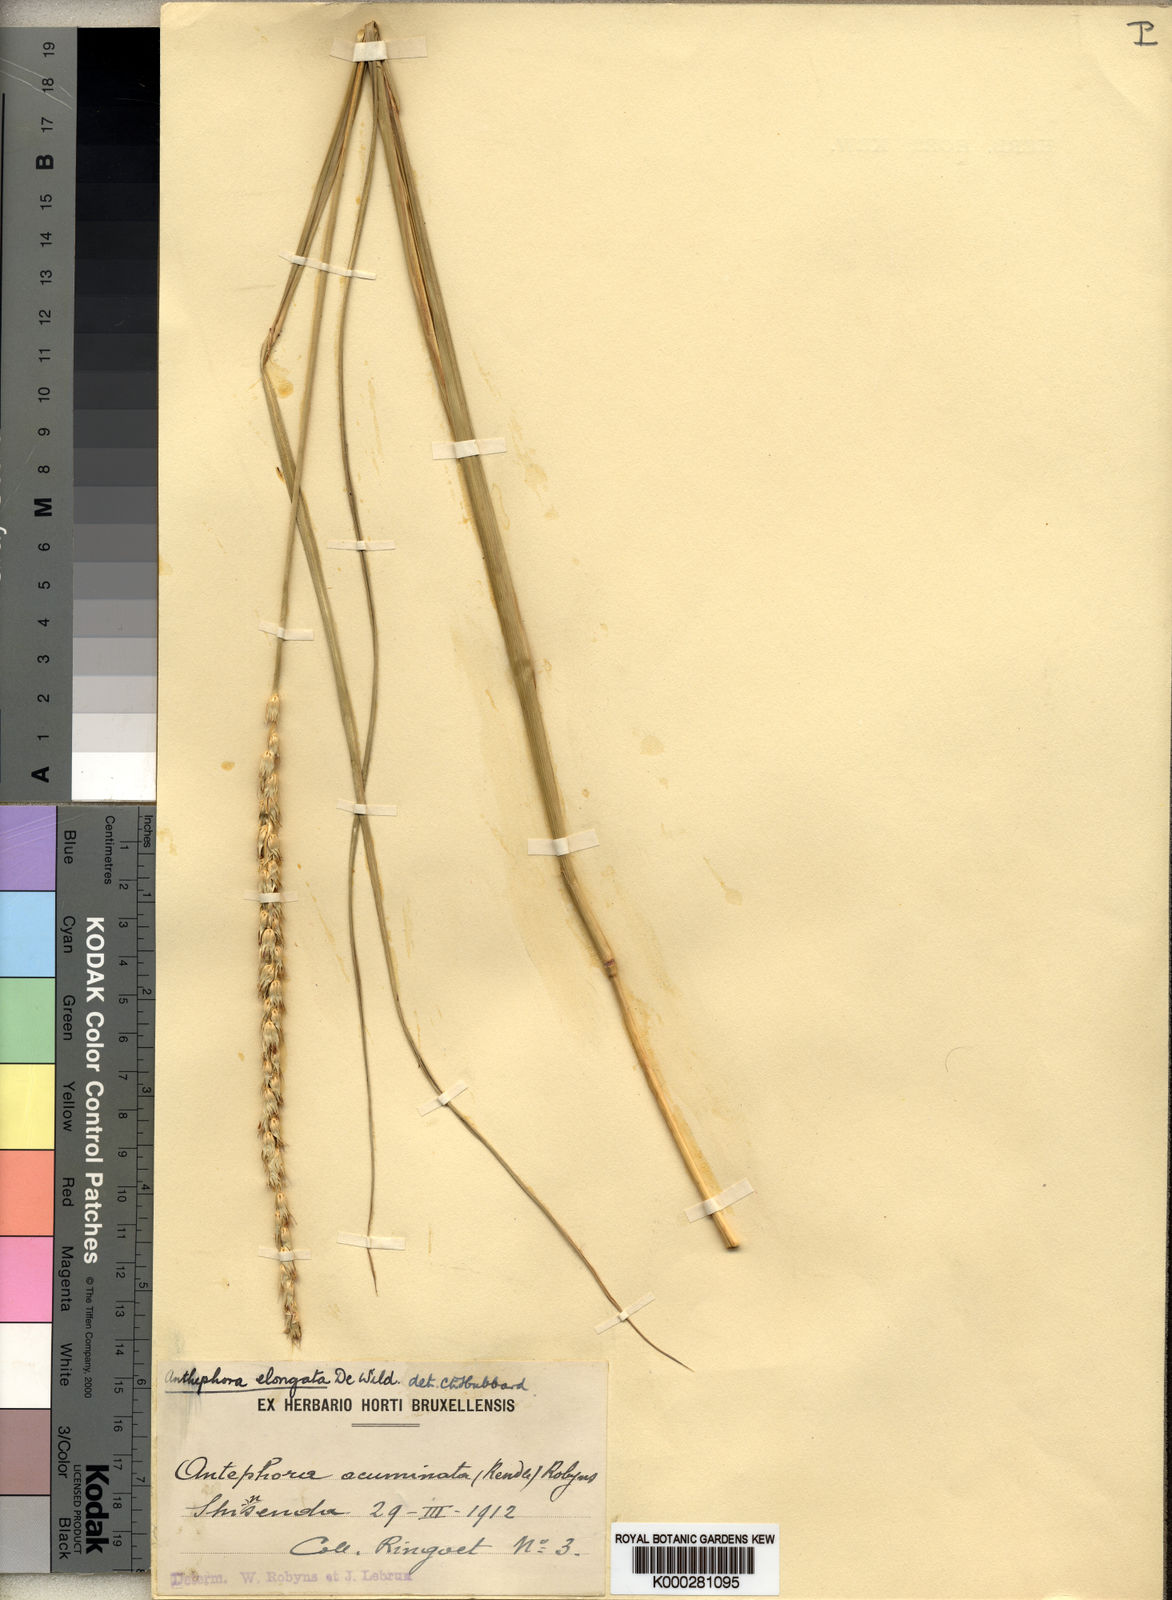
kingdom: Plantae
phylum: Tracheophyta
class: Liliopsida
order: Poales
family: Poaceae
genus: Anthephora
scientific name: Anthephora elongata
